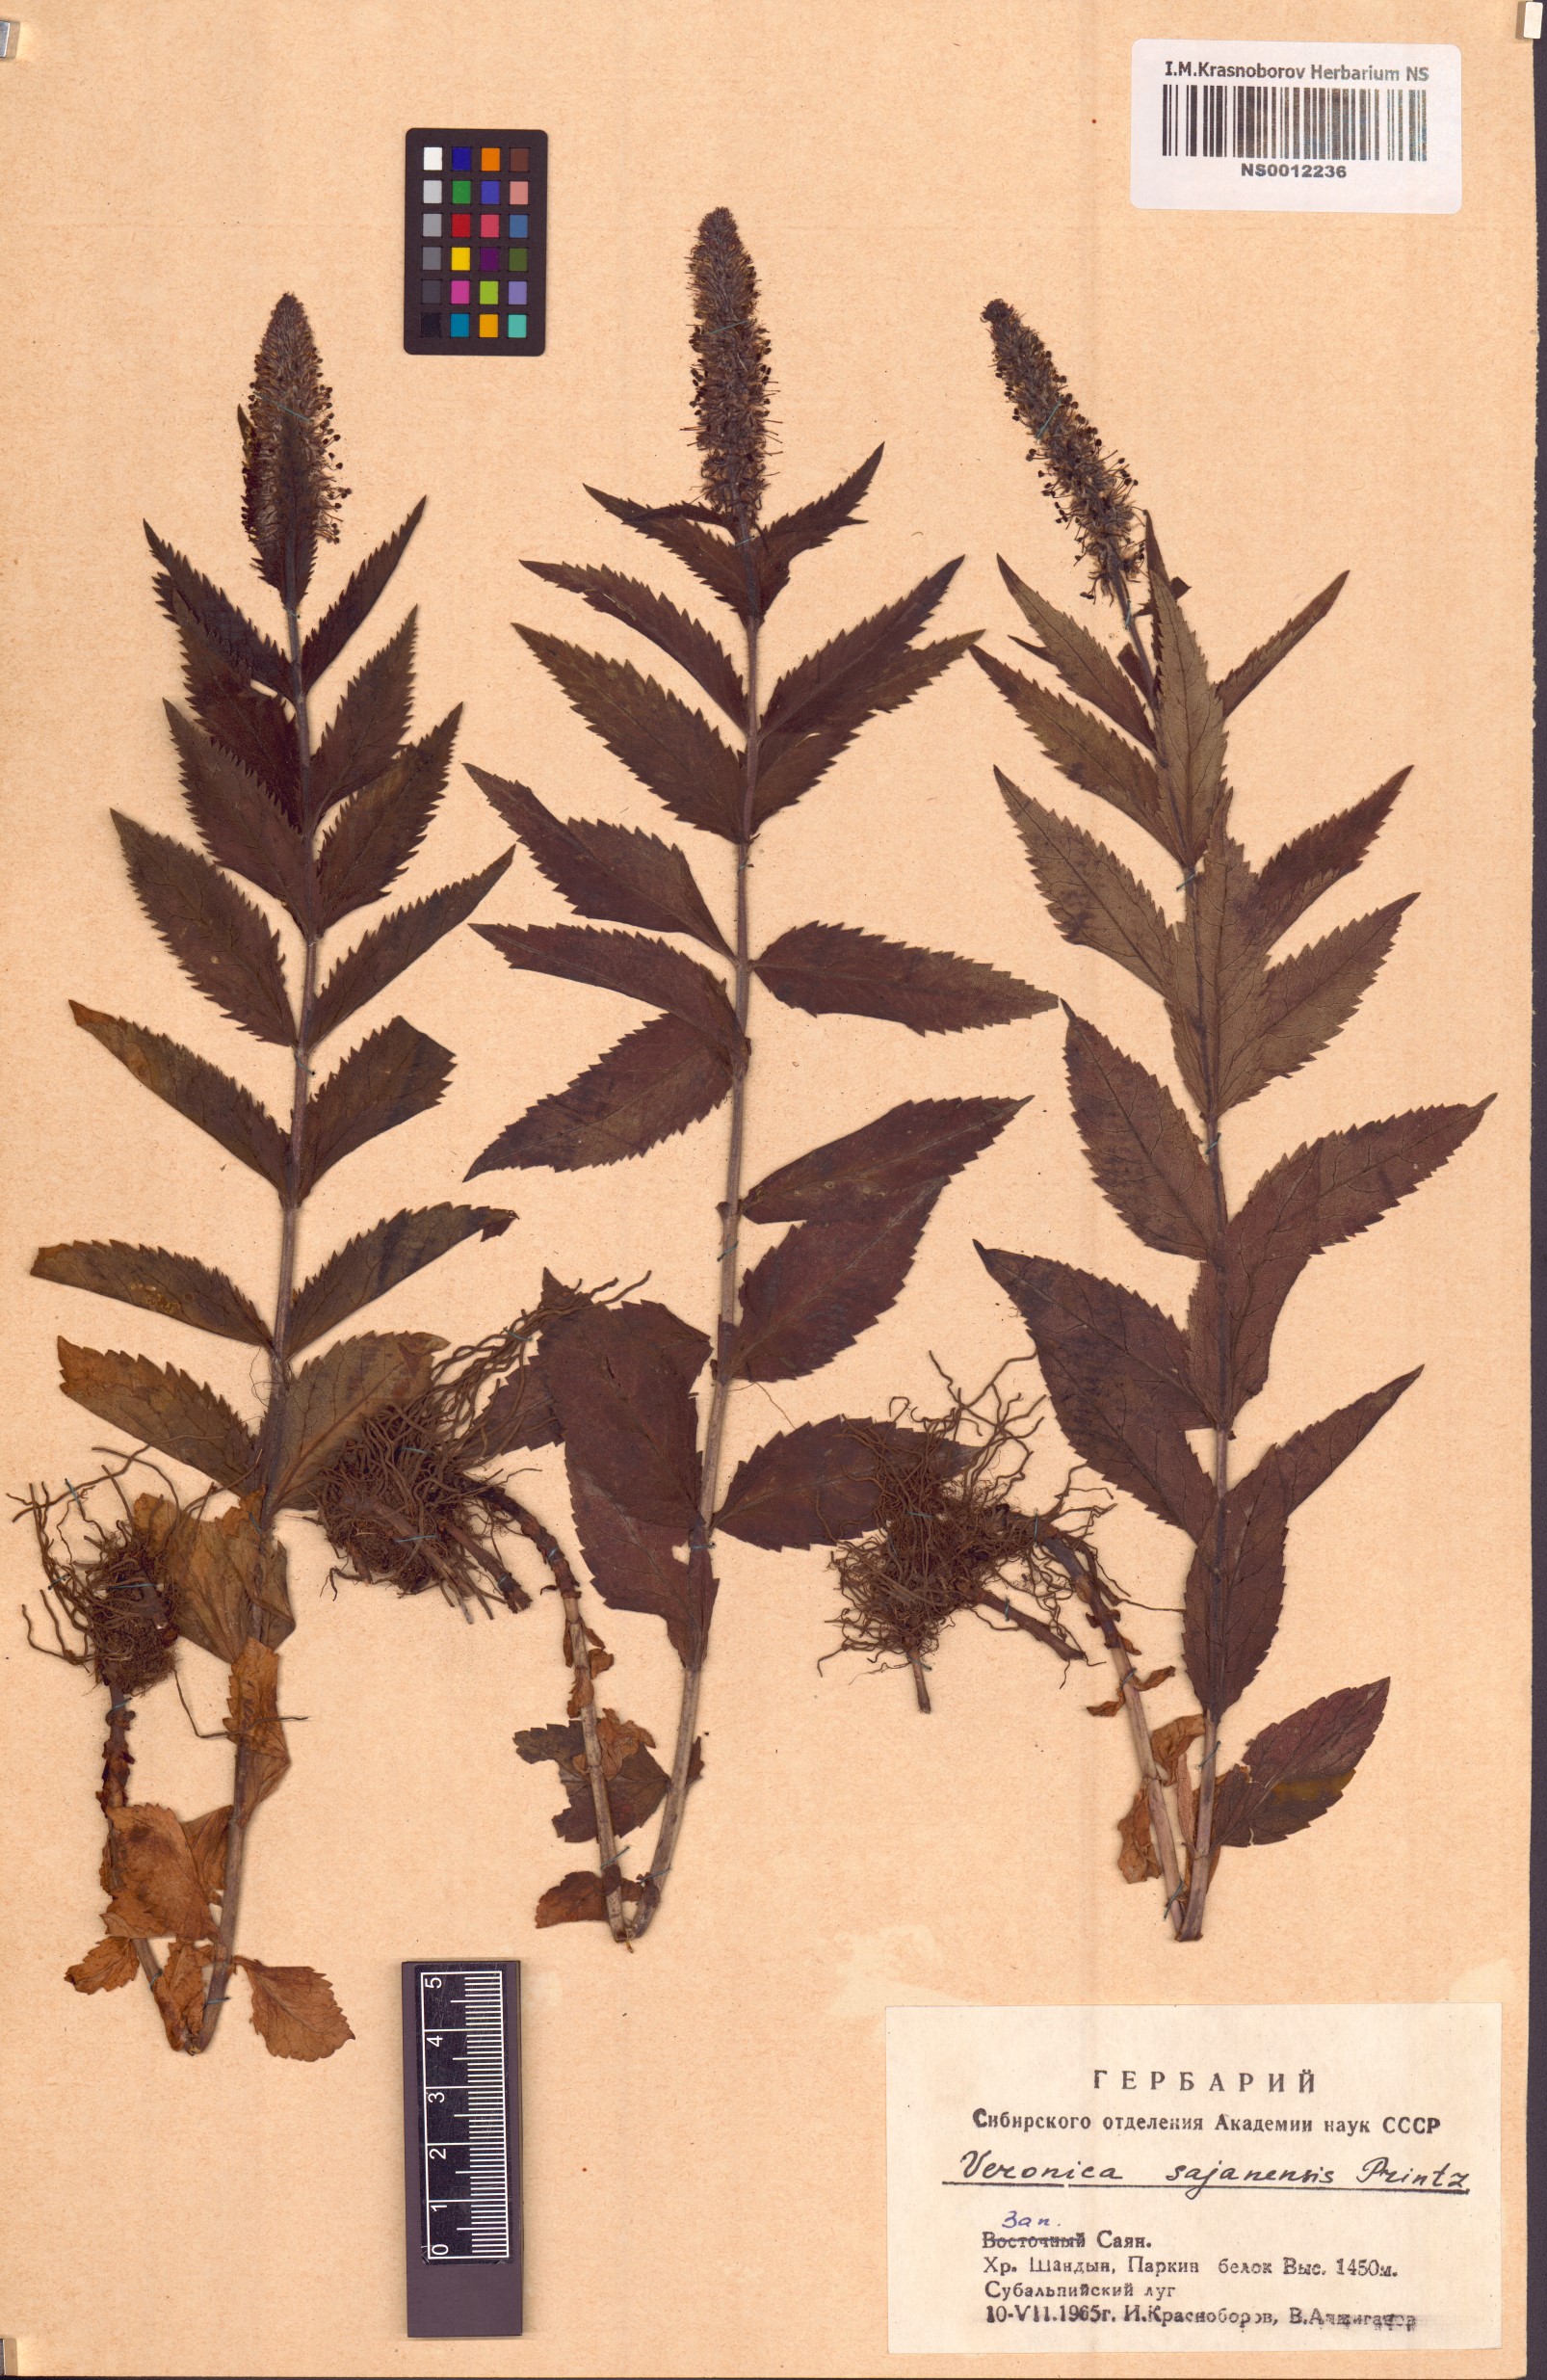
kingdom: Plantae
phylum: Tracheophyta
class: Magnoliopsida
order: Lamiales
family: Plantaginaceae
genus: Veronica
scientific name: Veronica sajanensis
